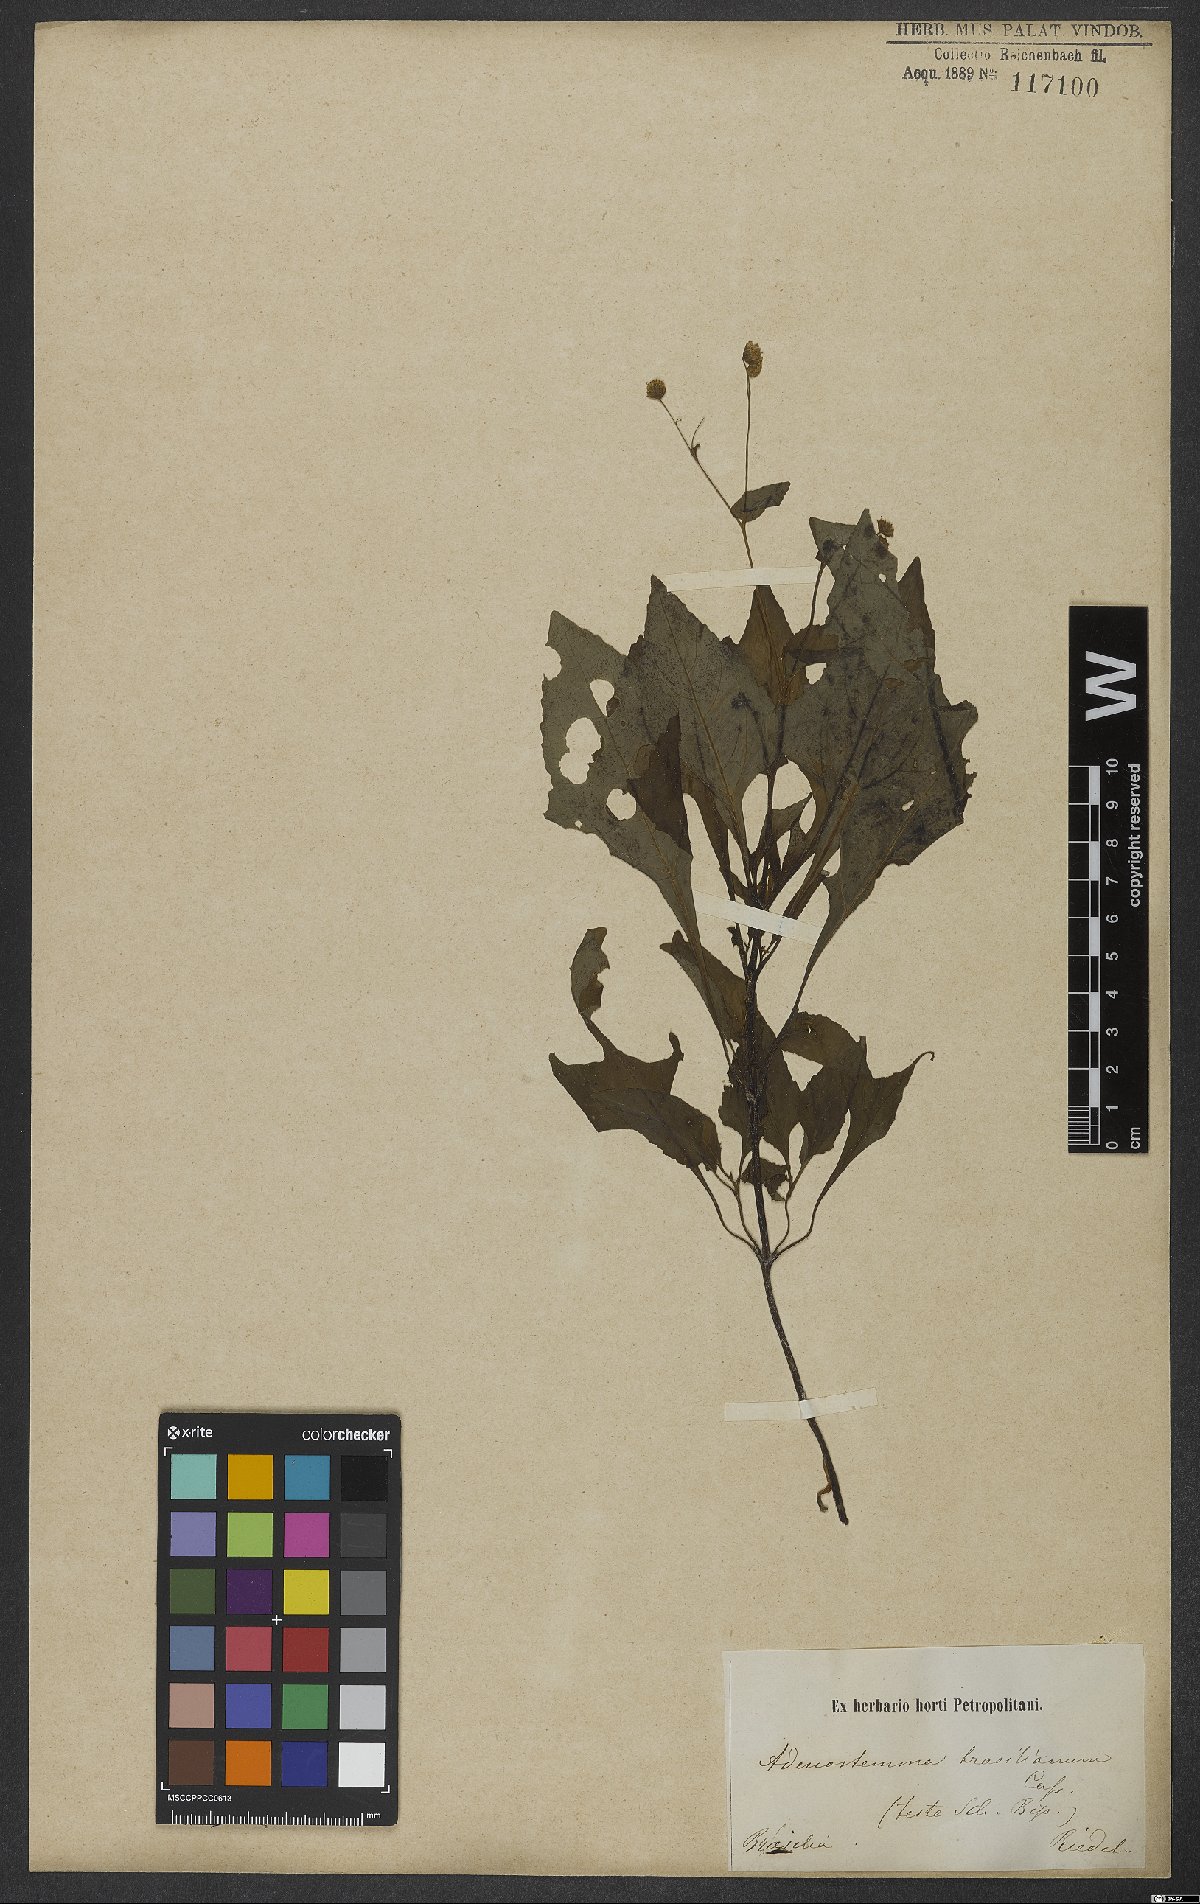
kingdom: Plantae
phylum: Tracheophyta
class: Magnoliopsida
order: Asterales
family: Asteraceae
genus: Adenostemma
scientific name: Adenostemma brasilianum
